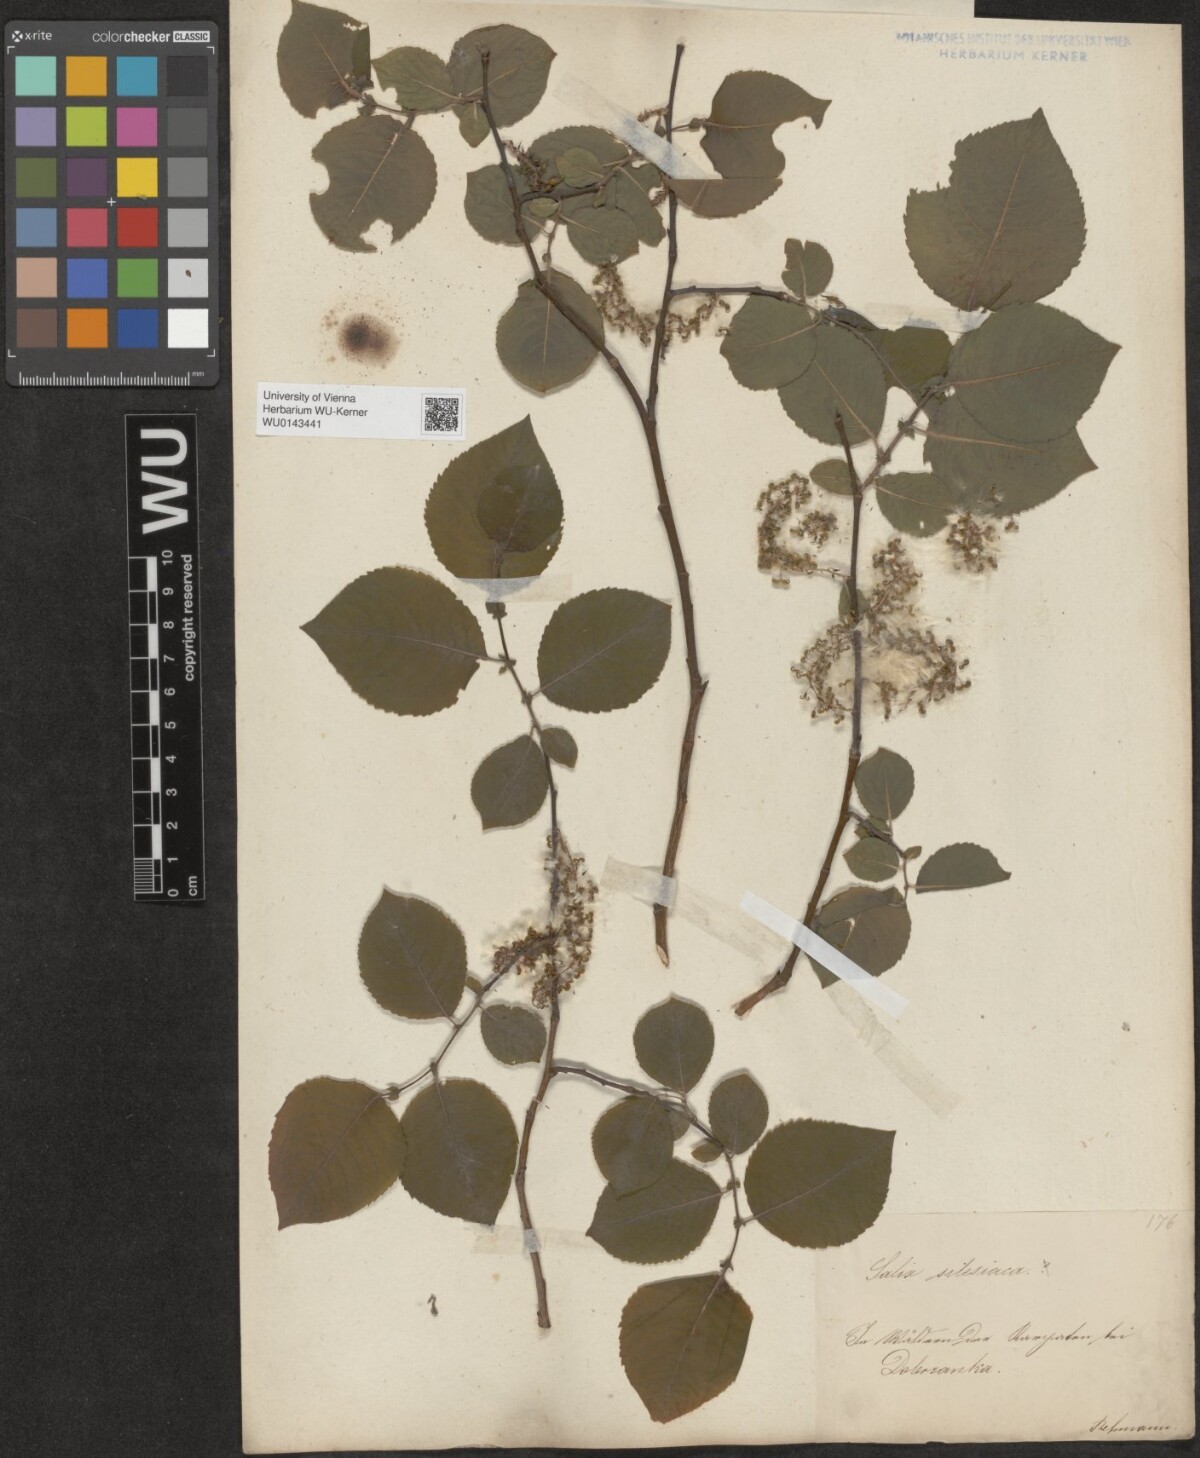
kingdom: Plantae
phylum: Tracheophyta
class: Magnoliopsida
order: Malpighiales
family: Salicaceae
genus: Salix
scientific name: Salix silesiaca
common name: Silesian willow
